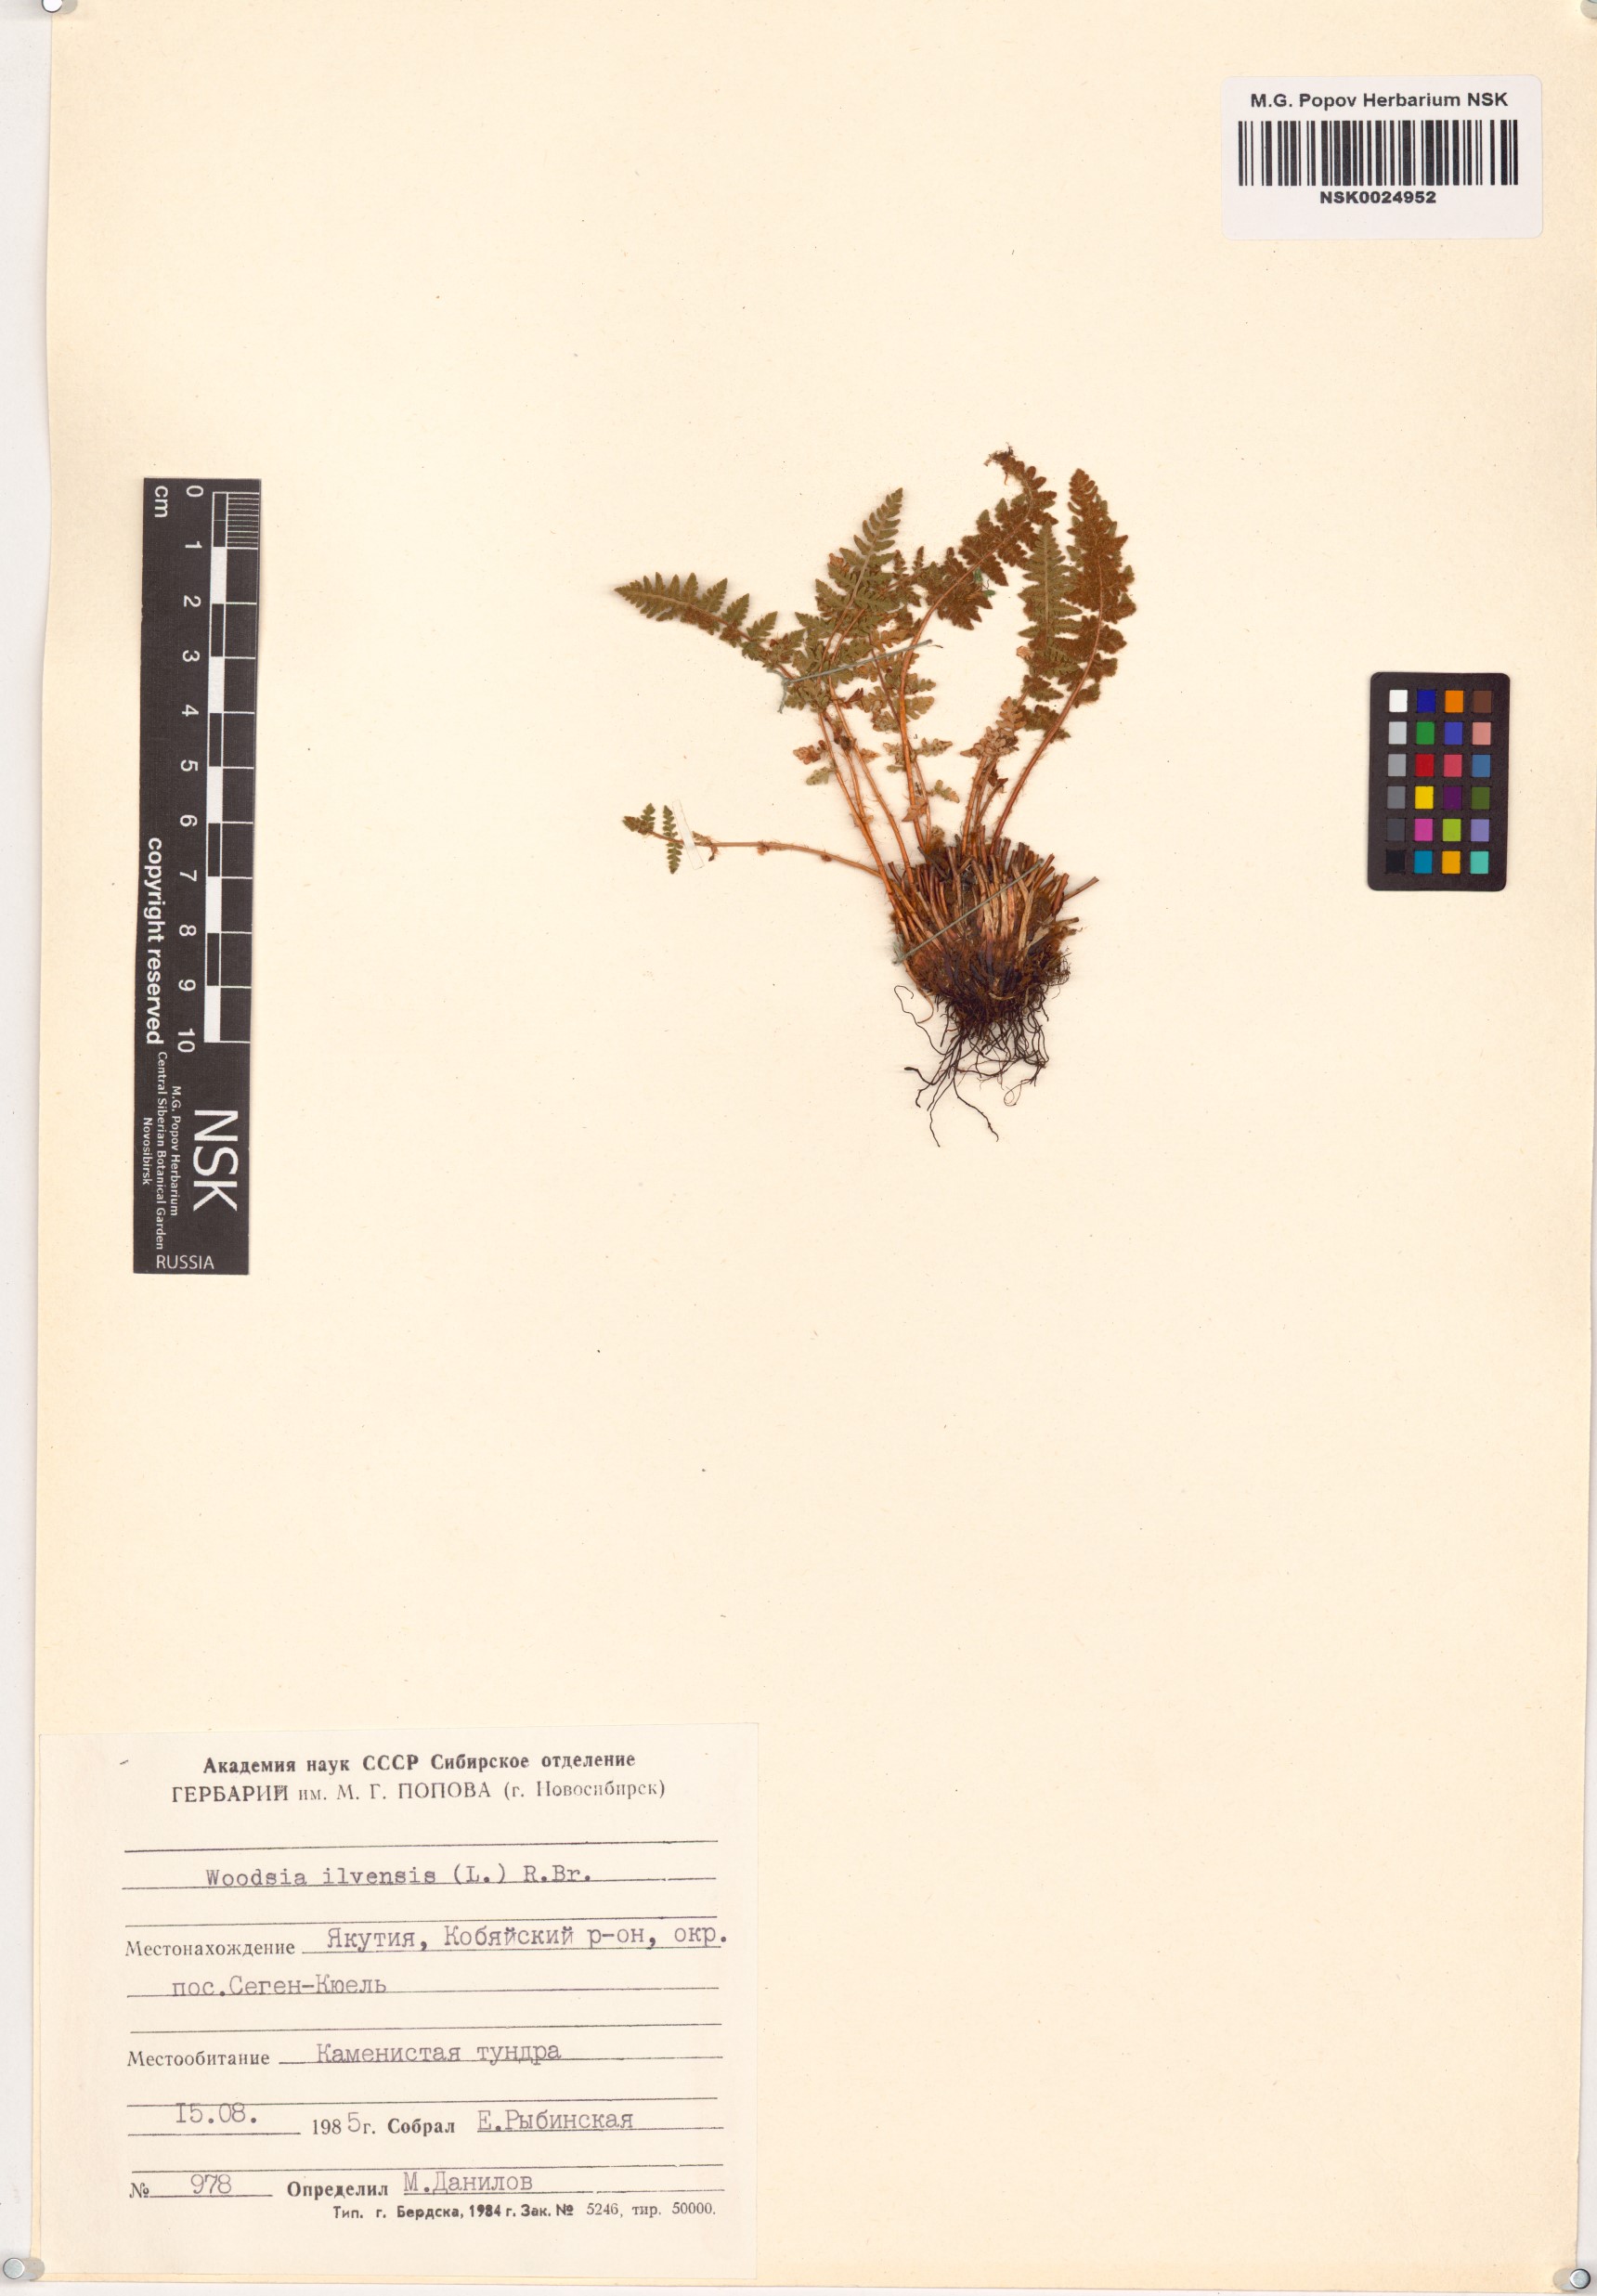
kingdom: Plantae
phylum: Tracheophyta
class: Polypodiopsida
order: Polypodiales
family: Woodsiaceae
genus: Woodsia
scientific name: Woodsia ilvensis
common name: Fragrant woodsia
